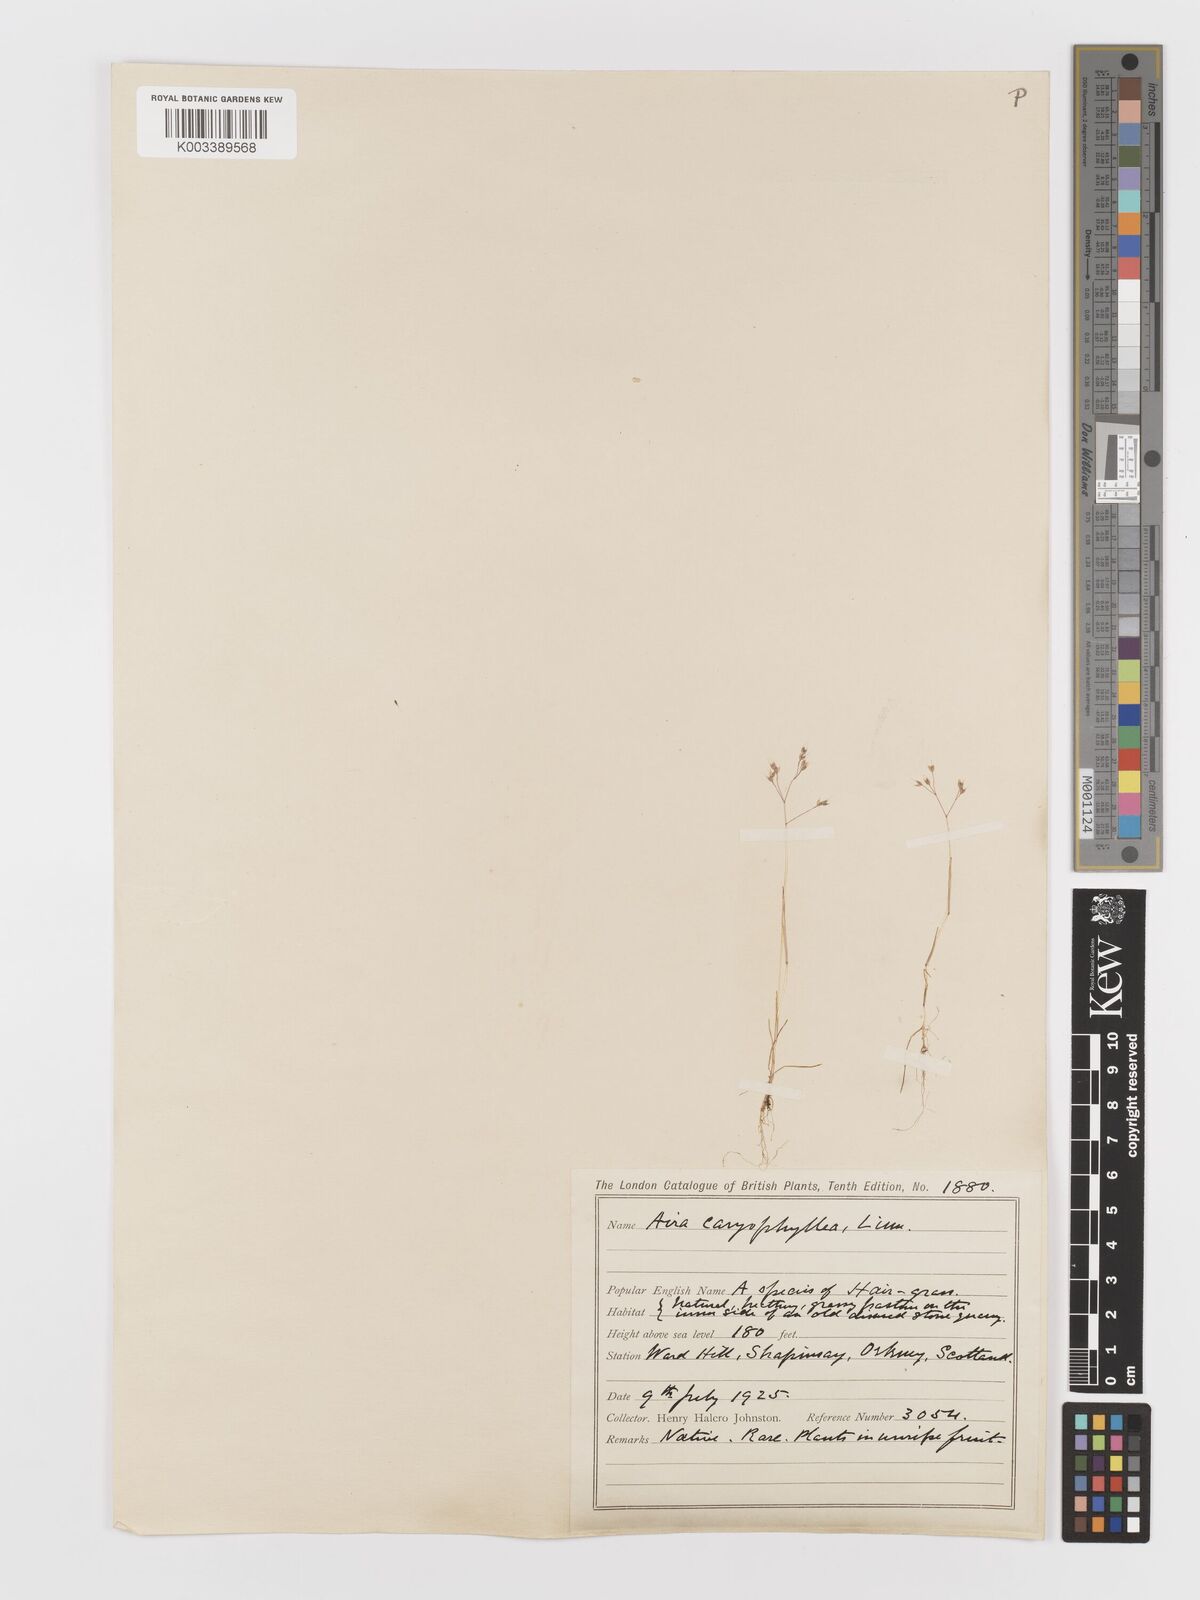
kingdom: Plantae
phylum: Tracheophyta
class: Liliopsida
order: Poales
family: Poaceae
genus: Aira
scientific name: Aira caryophyllea
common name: Silver hairgrass
